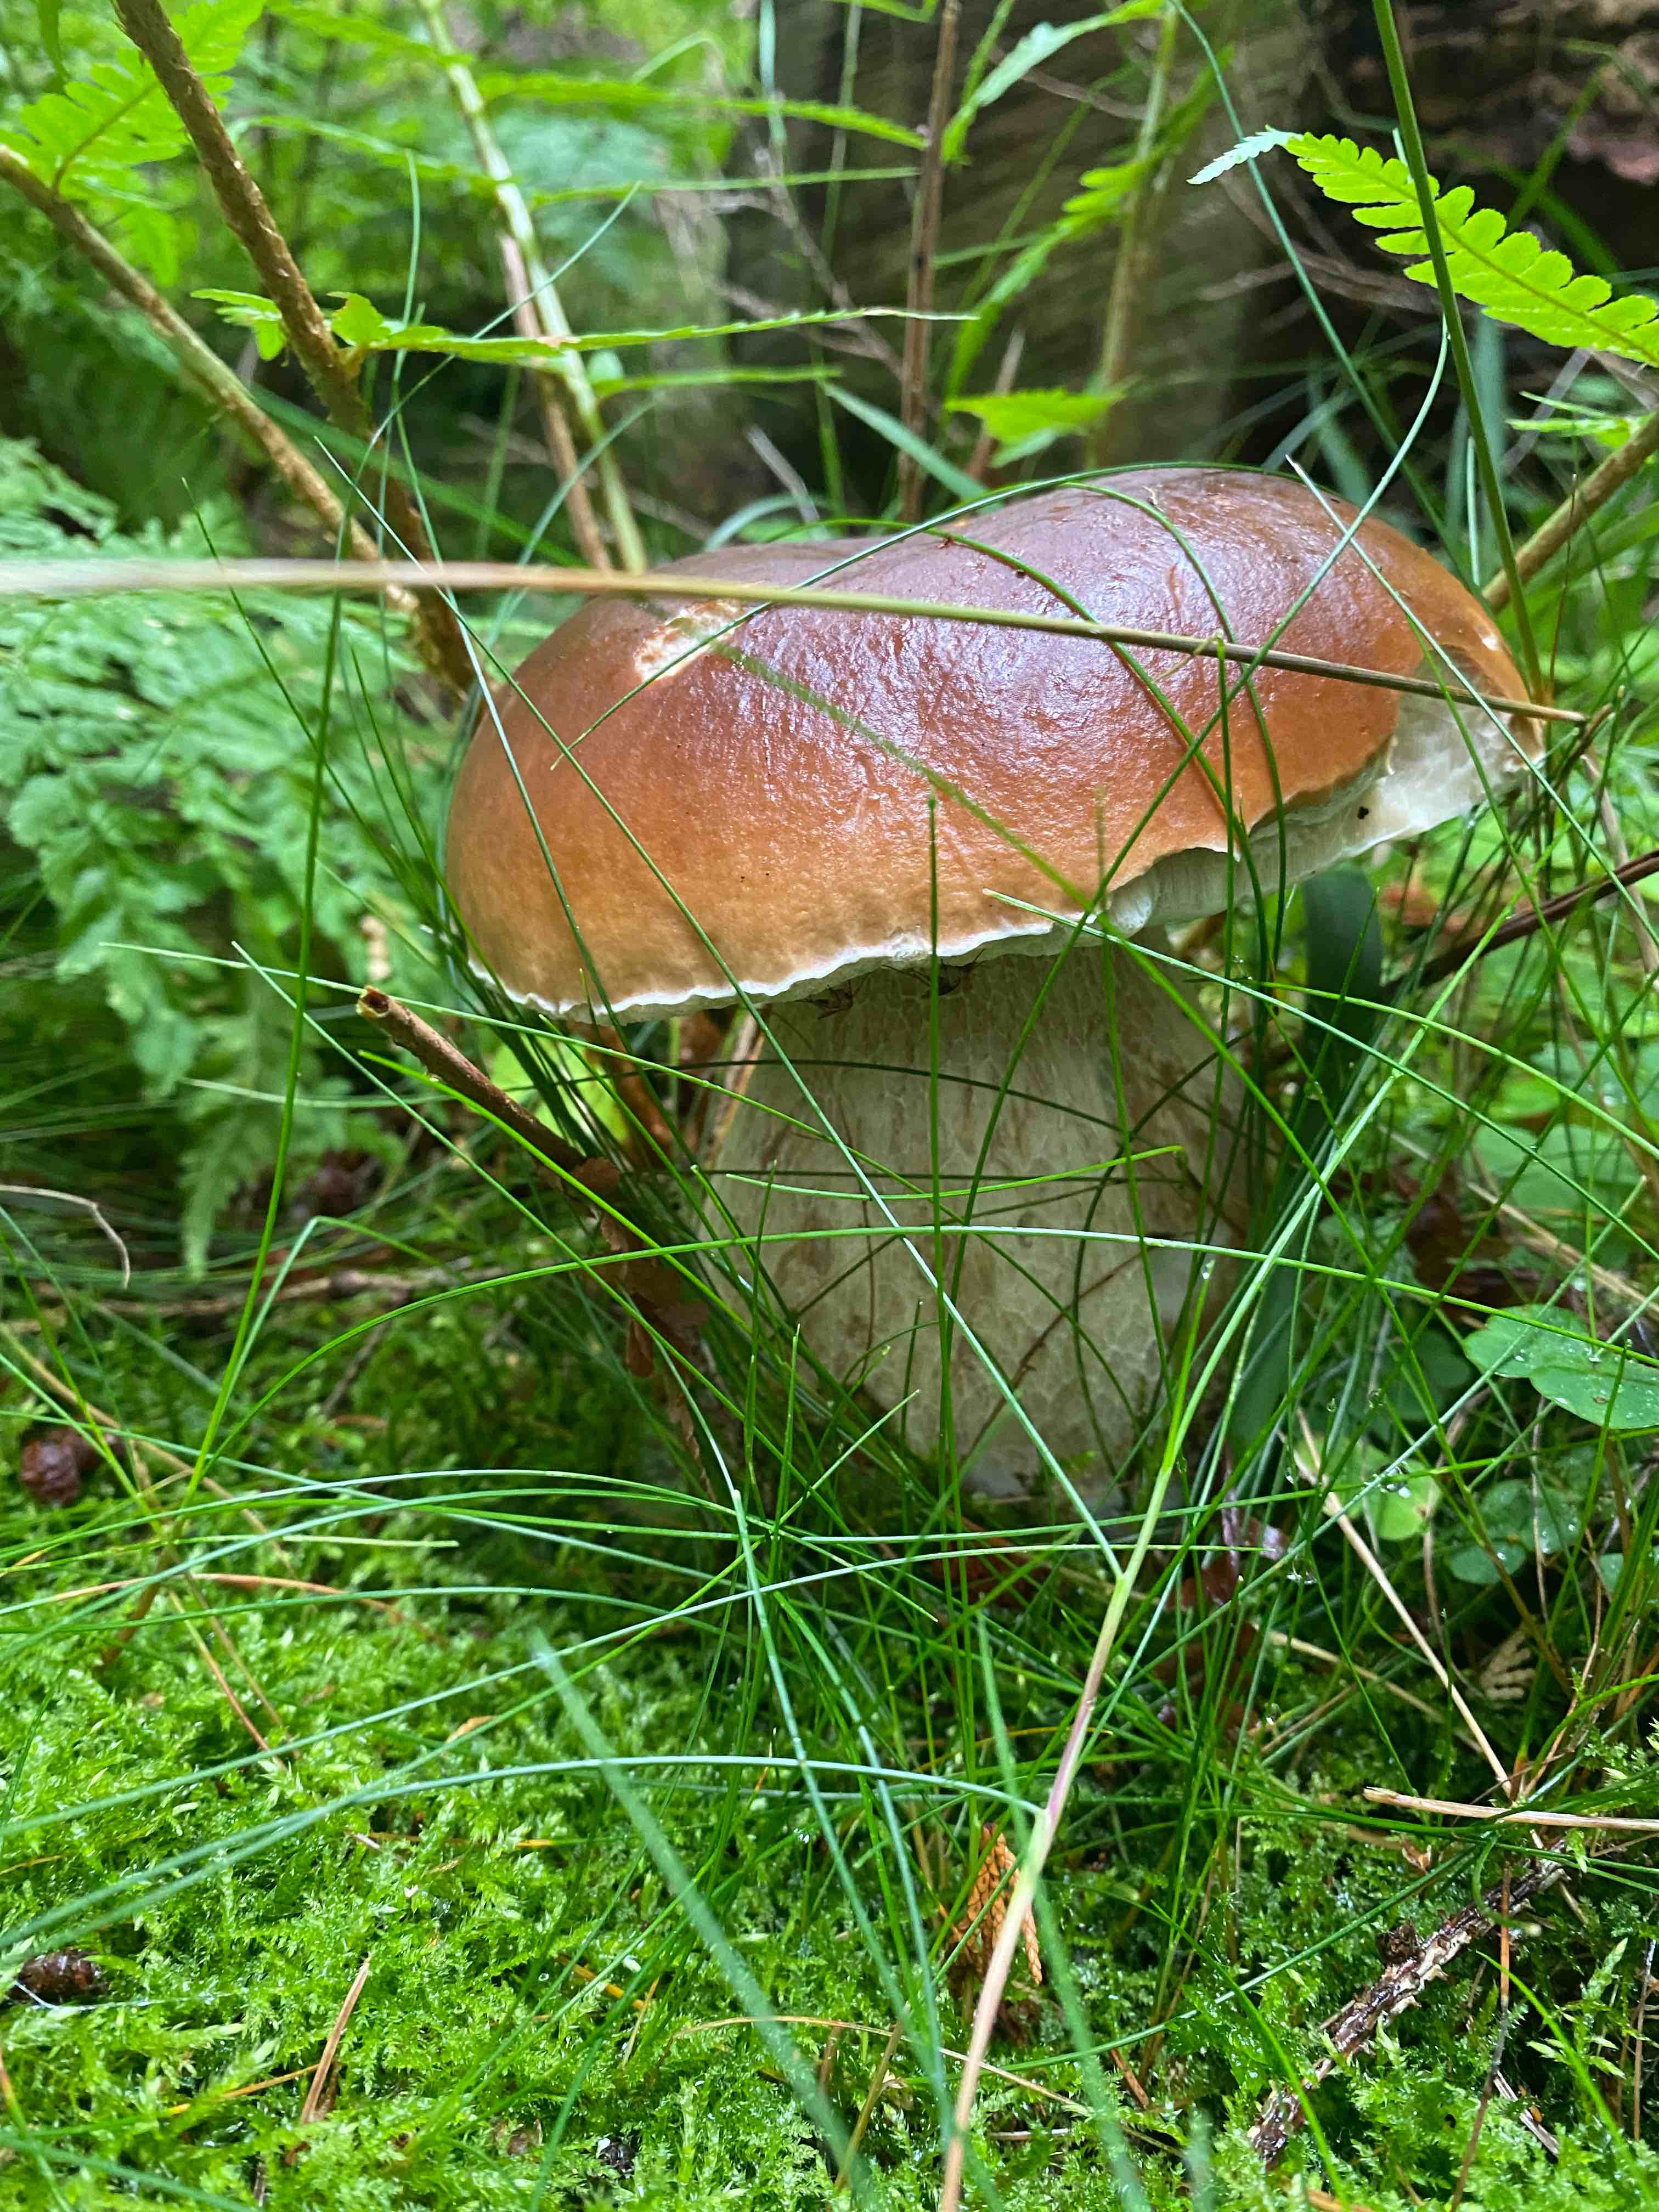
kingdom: Fungi
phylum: Basidiomycota
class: Agaricomycetes
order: Boletales
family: Boletaceae
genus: Boletus
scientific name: Boletus edulis
